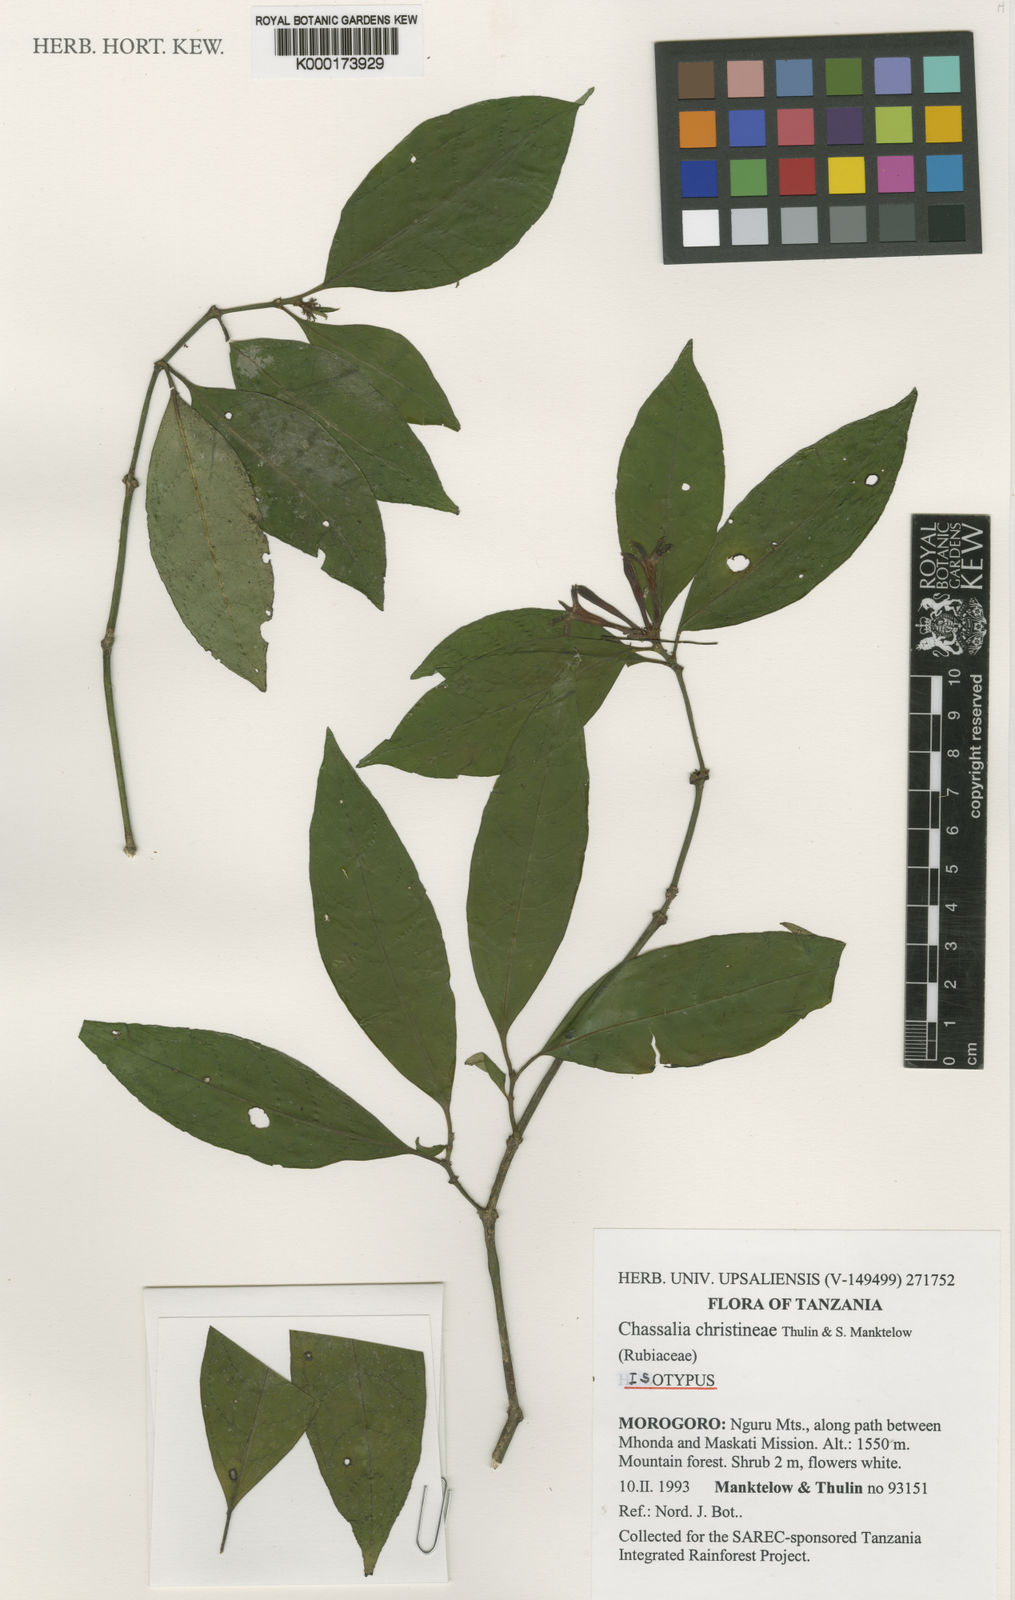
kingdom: Plantae
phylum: Tracheophyta
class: Magnoliopsida
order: Gentianales
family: Rubiaceae
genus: Chassalia
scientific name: Chassalia christineae
